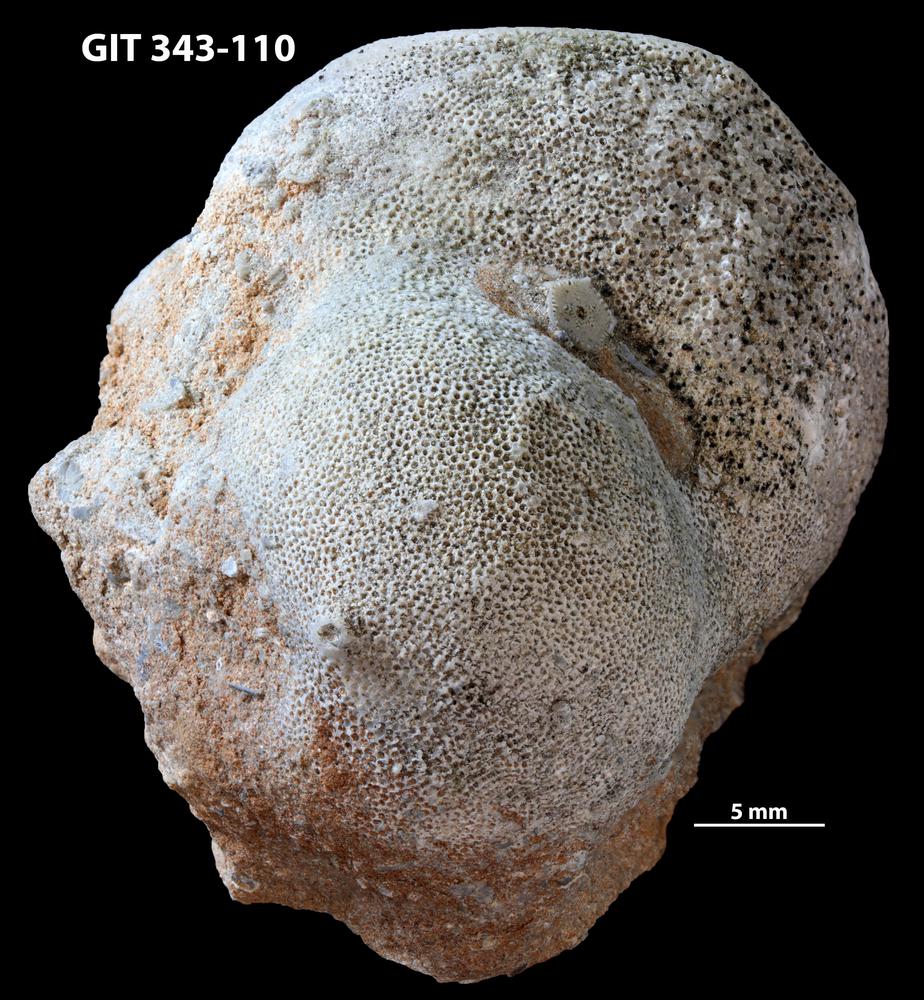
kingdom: Animalia
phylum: Bryozoa
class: Stenolaemata
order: Trepostomatida
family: Monticuliporidae
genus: Mesotrypa
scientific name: Mesotrypa excentrica
